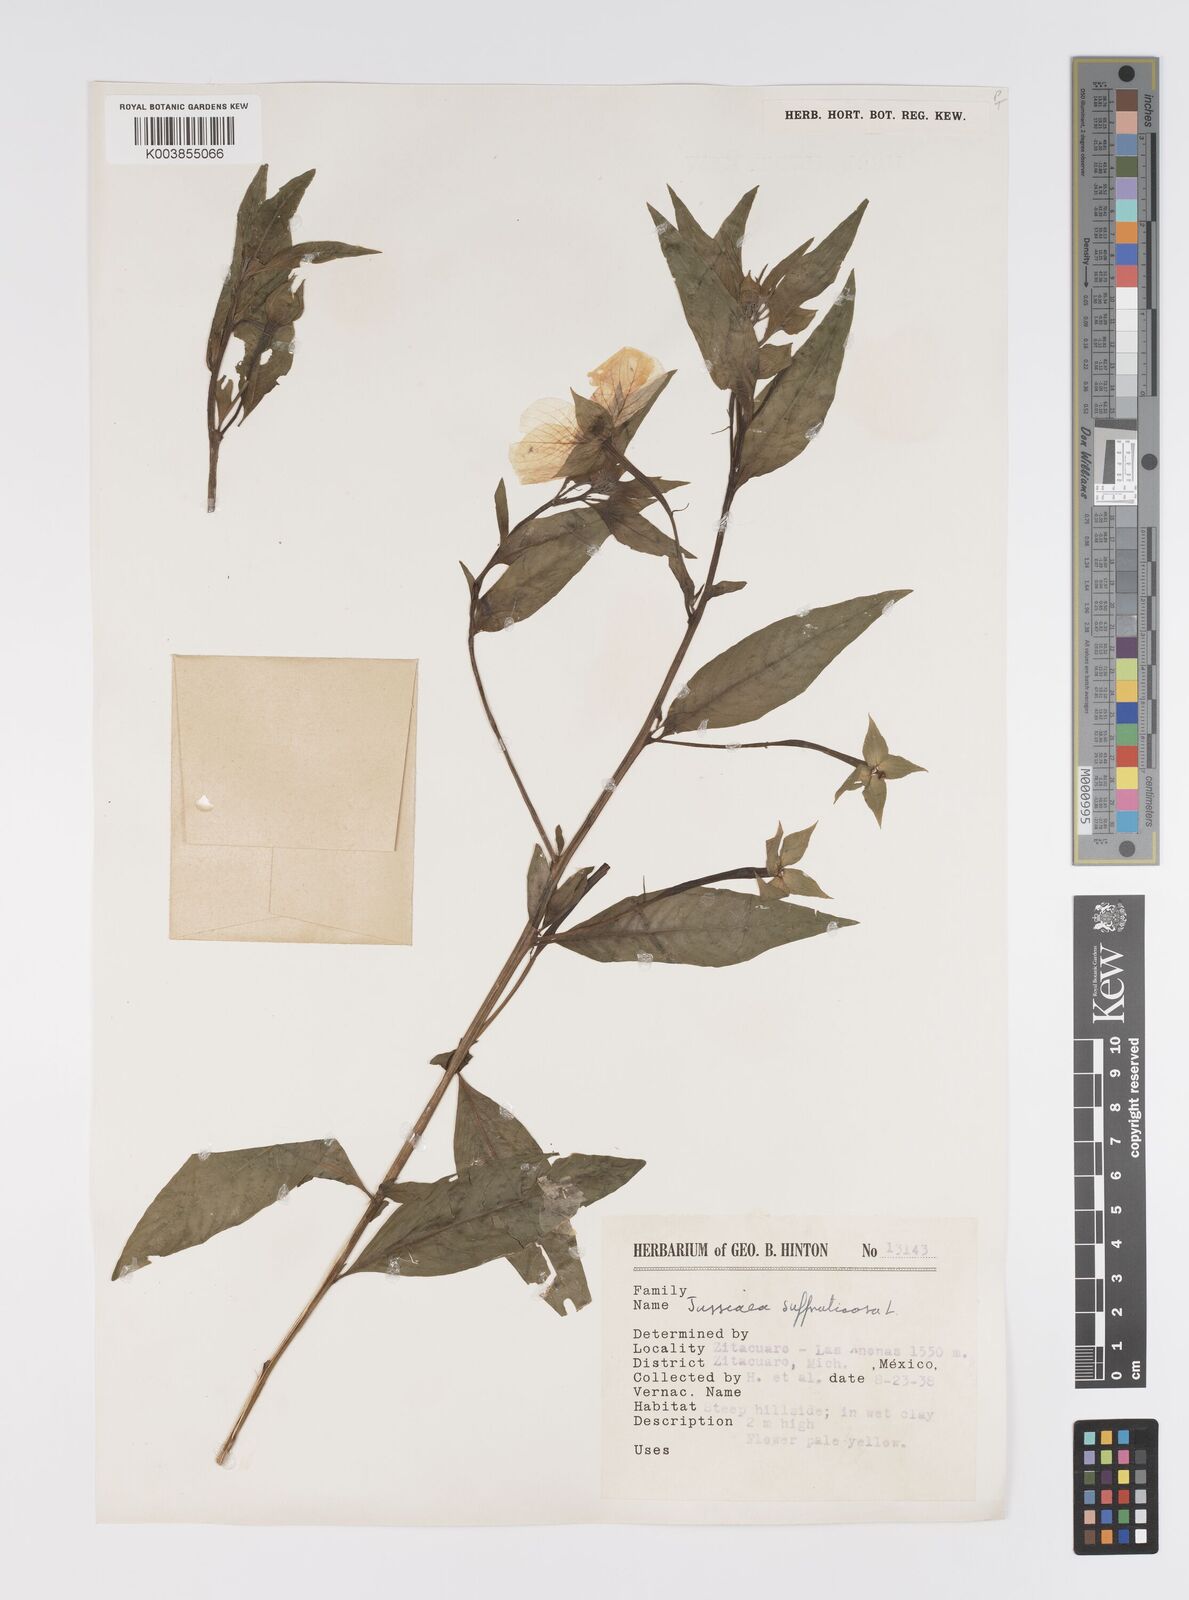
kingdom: Plantae
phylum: Tracheophyta
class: Magnoliopsida
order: Myrtales
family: Onagraceae
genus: Ludwigia
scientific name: Ludwigia octovalvis
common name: Water-primrose
